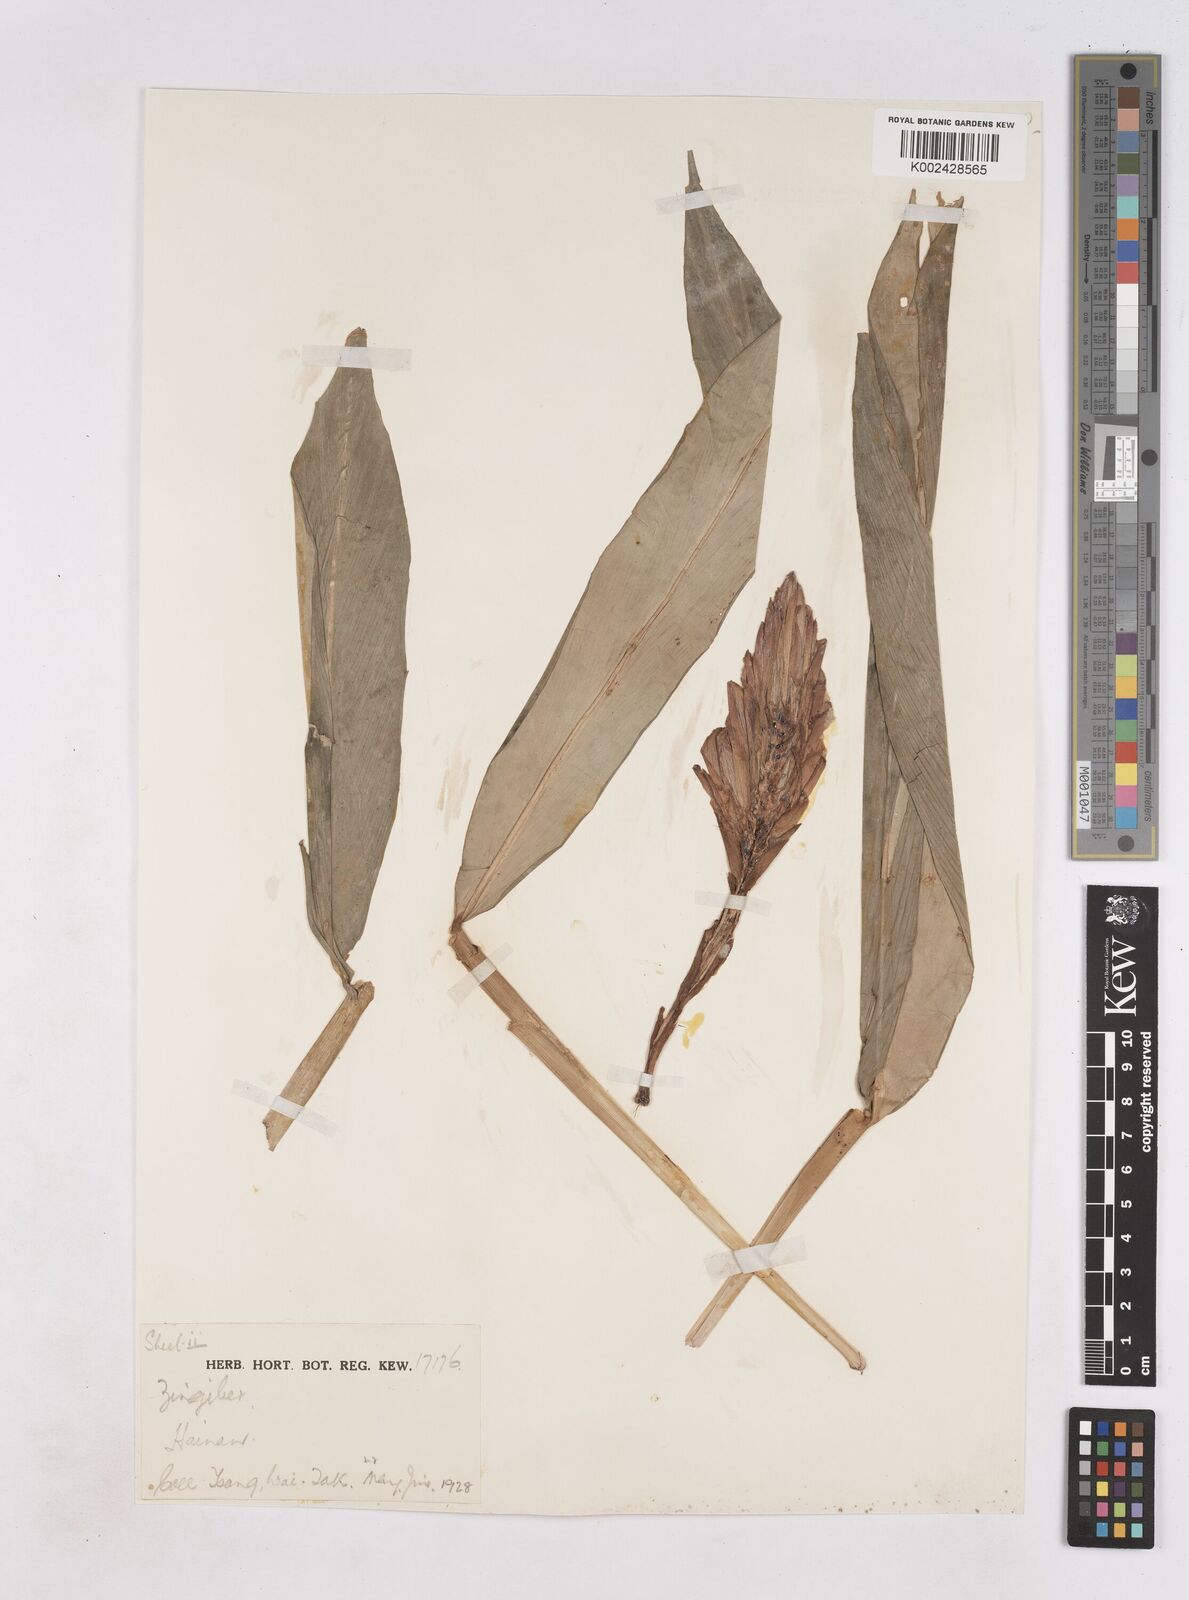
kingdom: Plantae
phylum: Tracheophyta
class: Liliopsida
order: Zingiberales
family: Zingiberaceae
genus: Zingiber
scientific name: Zingiber
